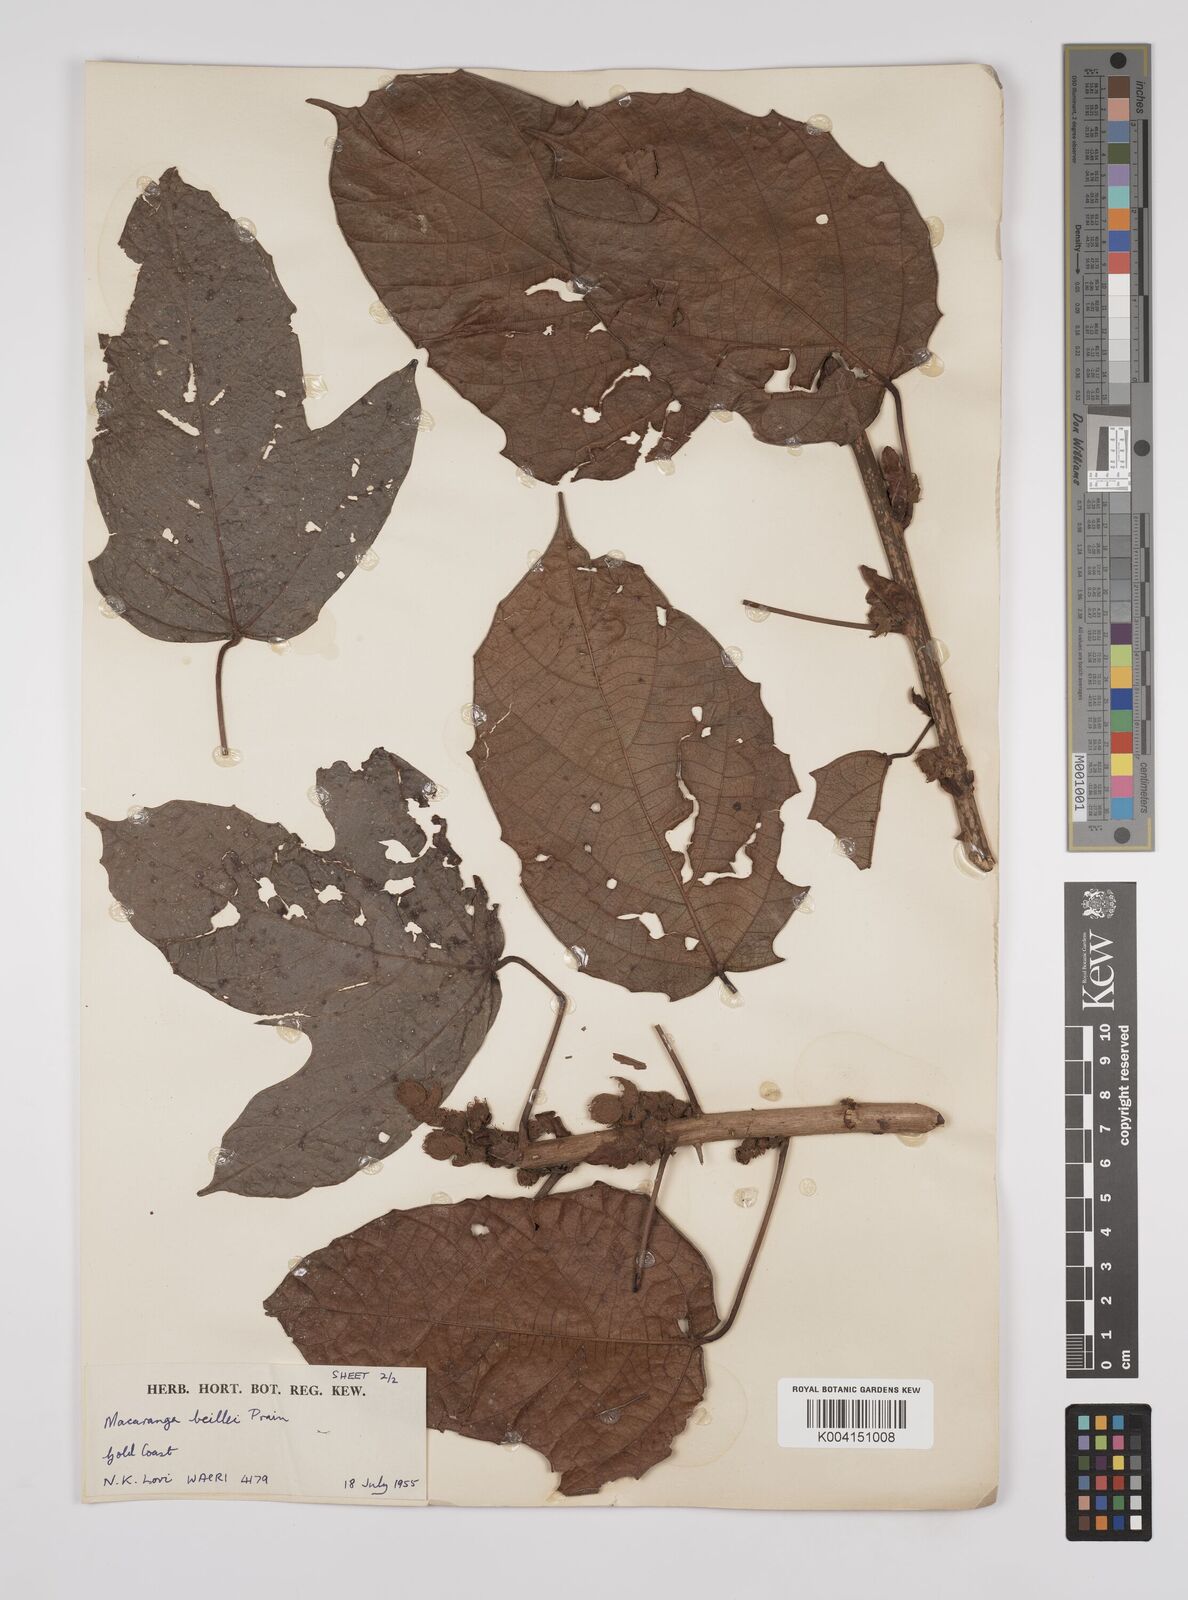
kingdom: Plantae
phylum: Tracheophyta
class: Magnoliopsida
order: Malpighiales
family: Euphorbiaceae
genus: Macaranga
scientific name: Macaranga beillei
